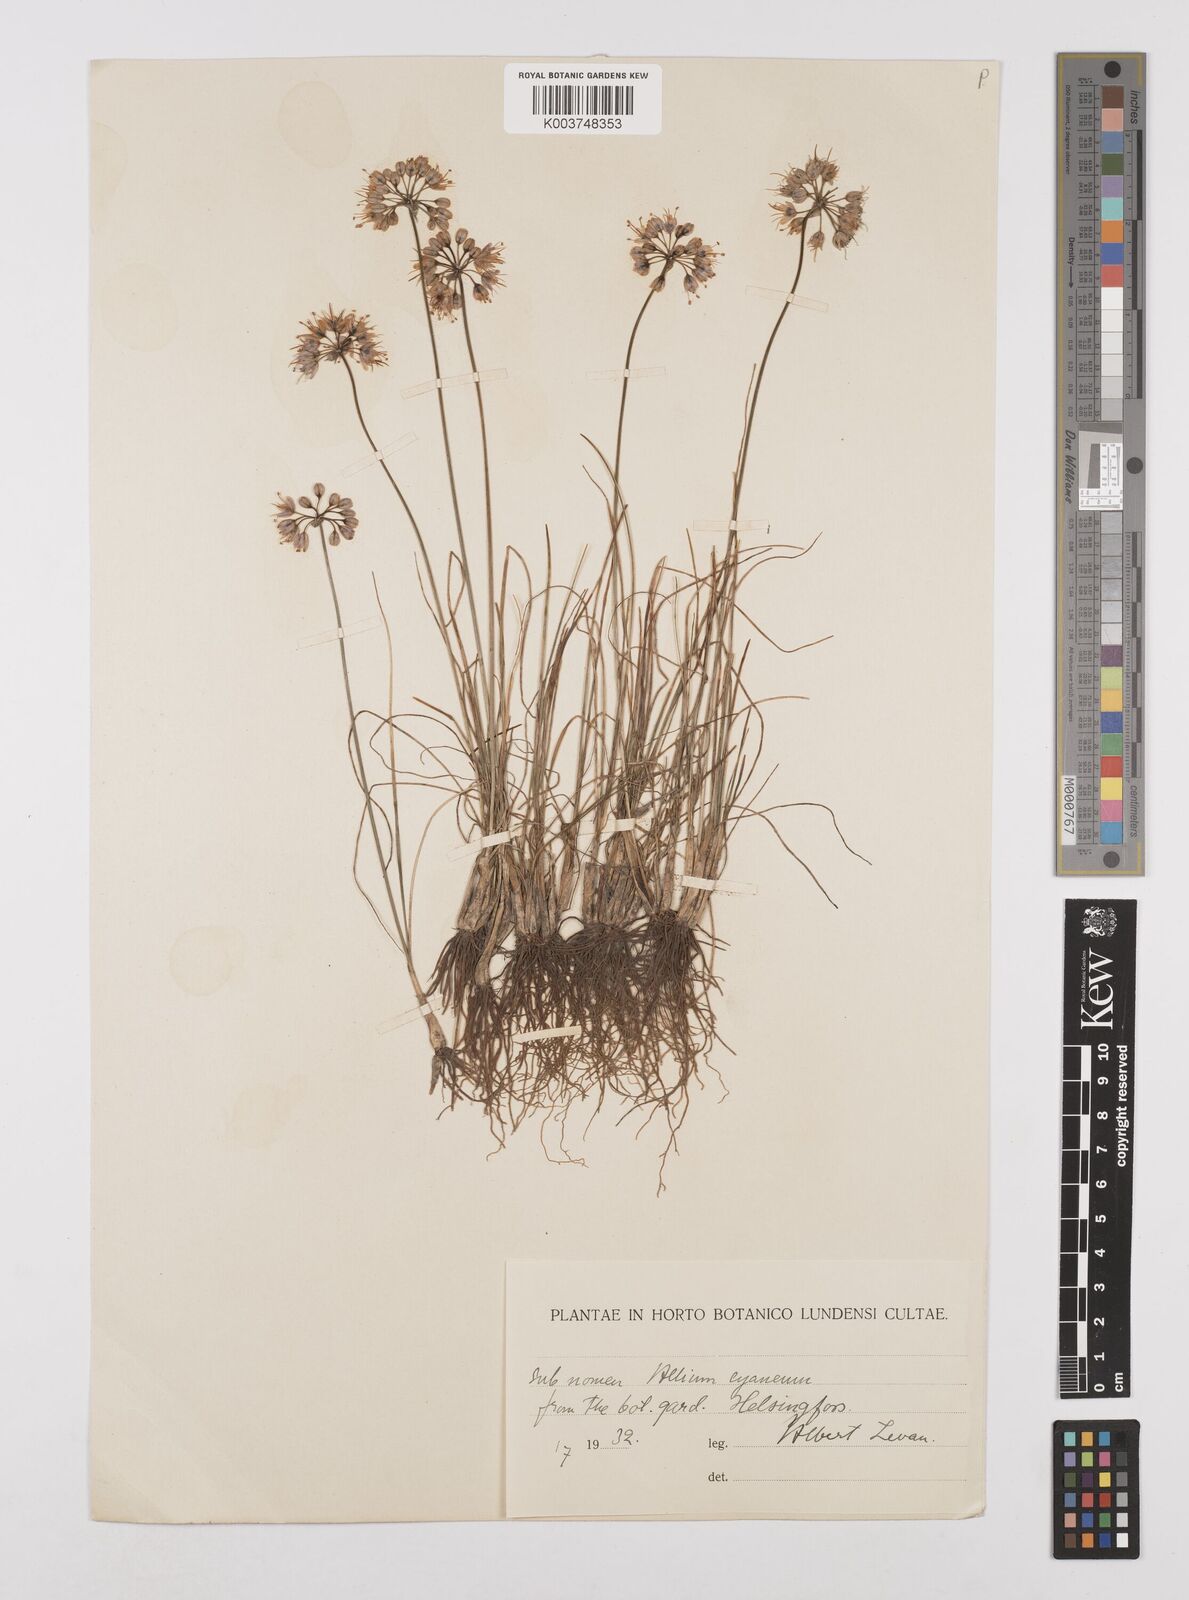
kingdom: Plantae
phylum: Tracheophyta
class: Liliopsida
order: Asparagales
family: Amaryllidaceae
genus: Allium
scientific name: Allium cyaneum
